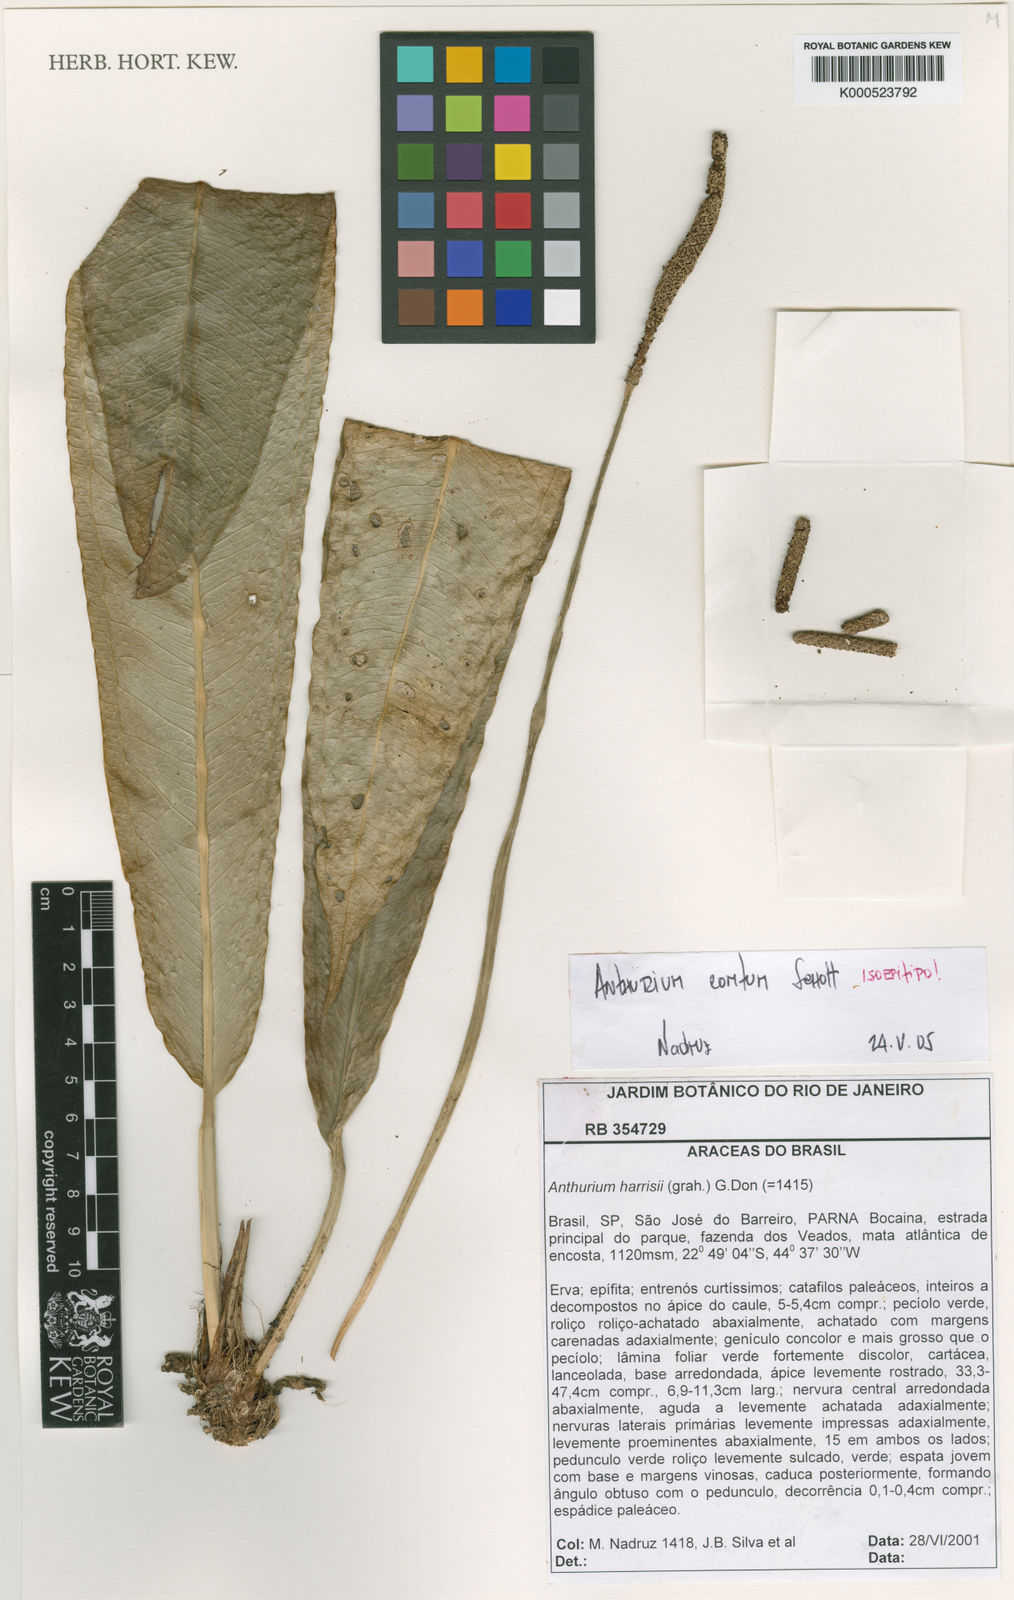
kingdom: Plantae
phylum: Tracheophyta
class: Liliopsida
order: Alismatales
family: Araceae
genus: Anthurium
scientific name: Anthurium comtum
